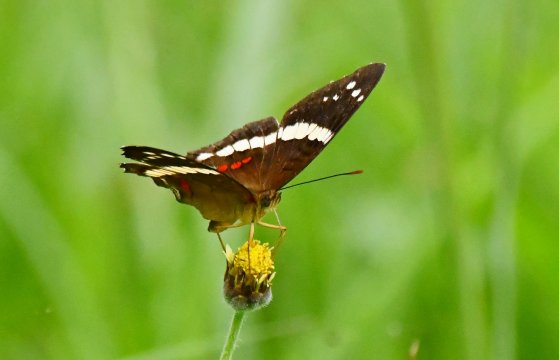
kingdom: Animalia
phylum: Arthropoda
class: Insecta
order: Lepidoptera
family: Nymphalidae
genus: Anartia
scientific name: Anartia fatima
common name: Banded Peacock
